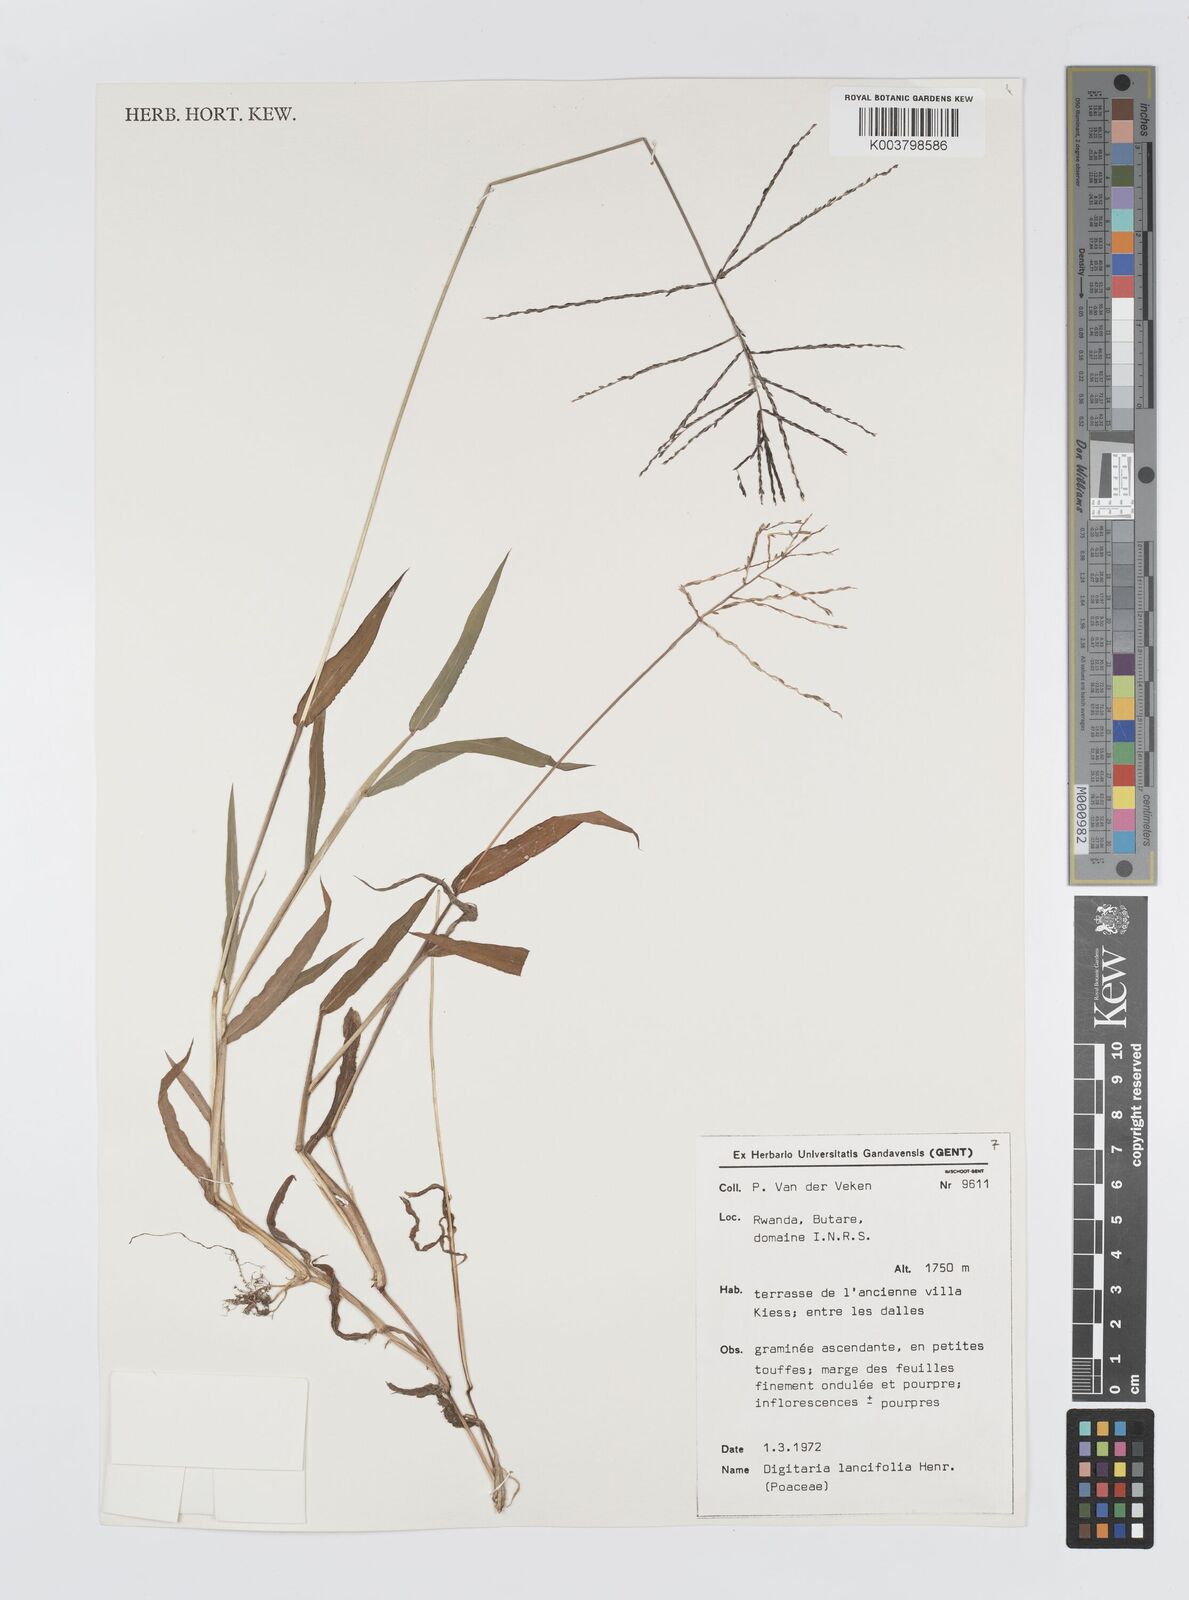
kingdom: Plantae
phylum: Tracheophyta
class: Liliopsida
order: Poales
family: Poaceae
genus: Digitaria
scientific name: Digitaria pearsonii
